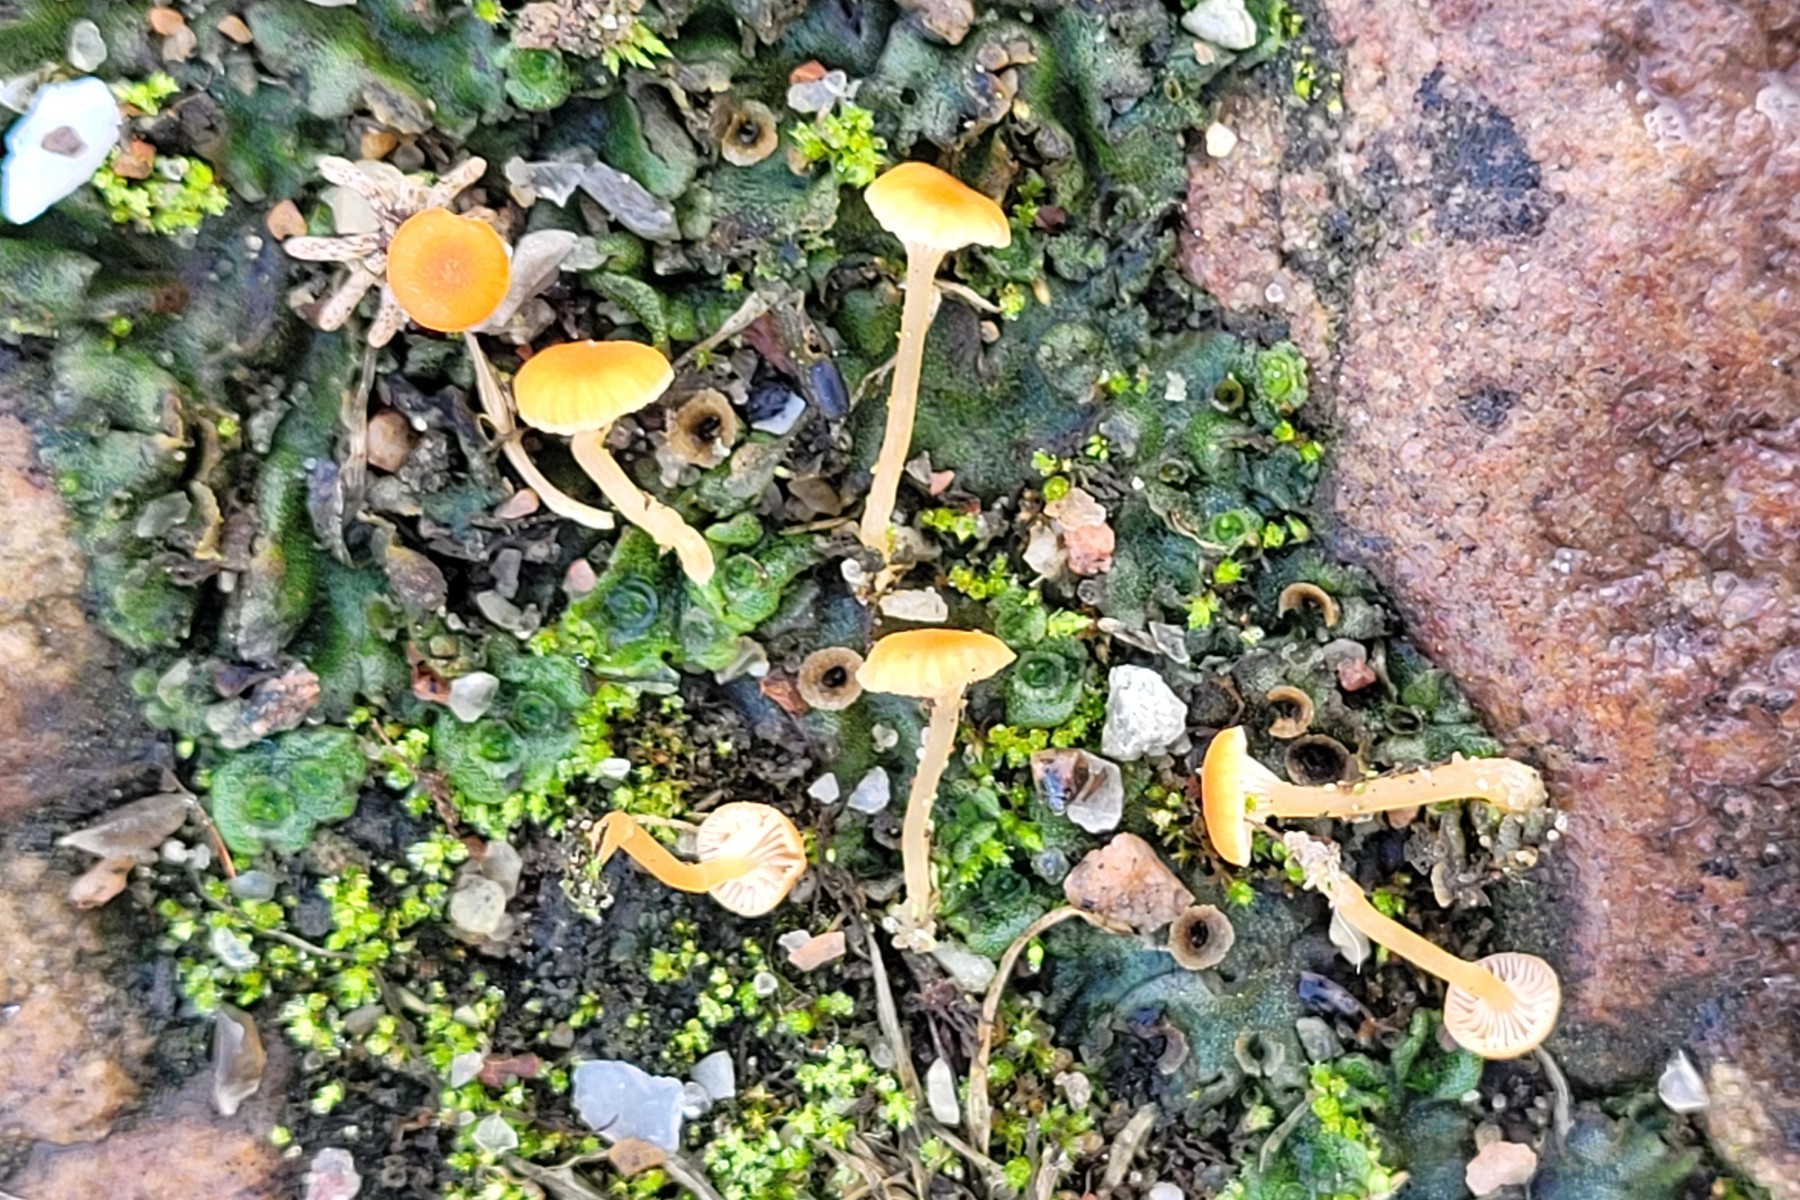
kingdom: Fungi
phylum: Basidiomycota
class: Agaricomycetes
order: Hymenochaetales
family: Rickenellaceae
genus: Loreleia
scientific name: Loreleia postii
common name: brandplet-mosnavlehat
